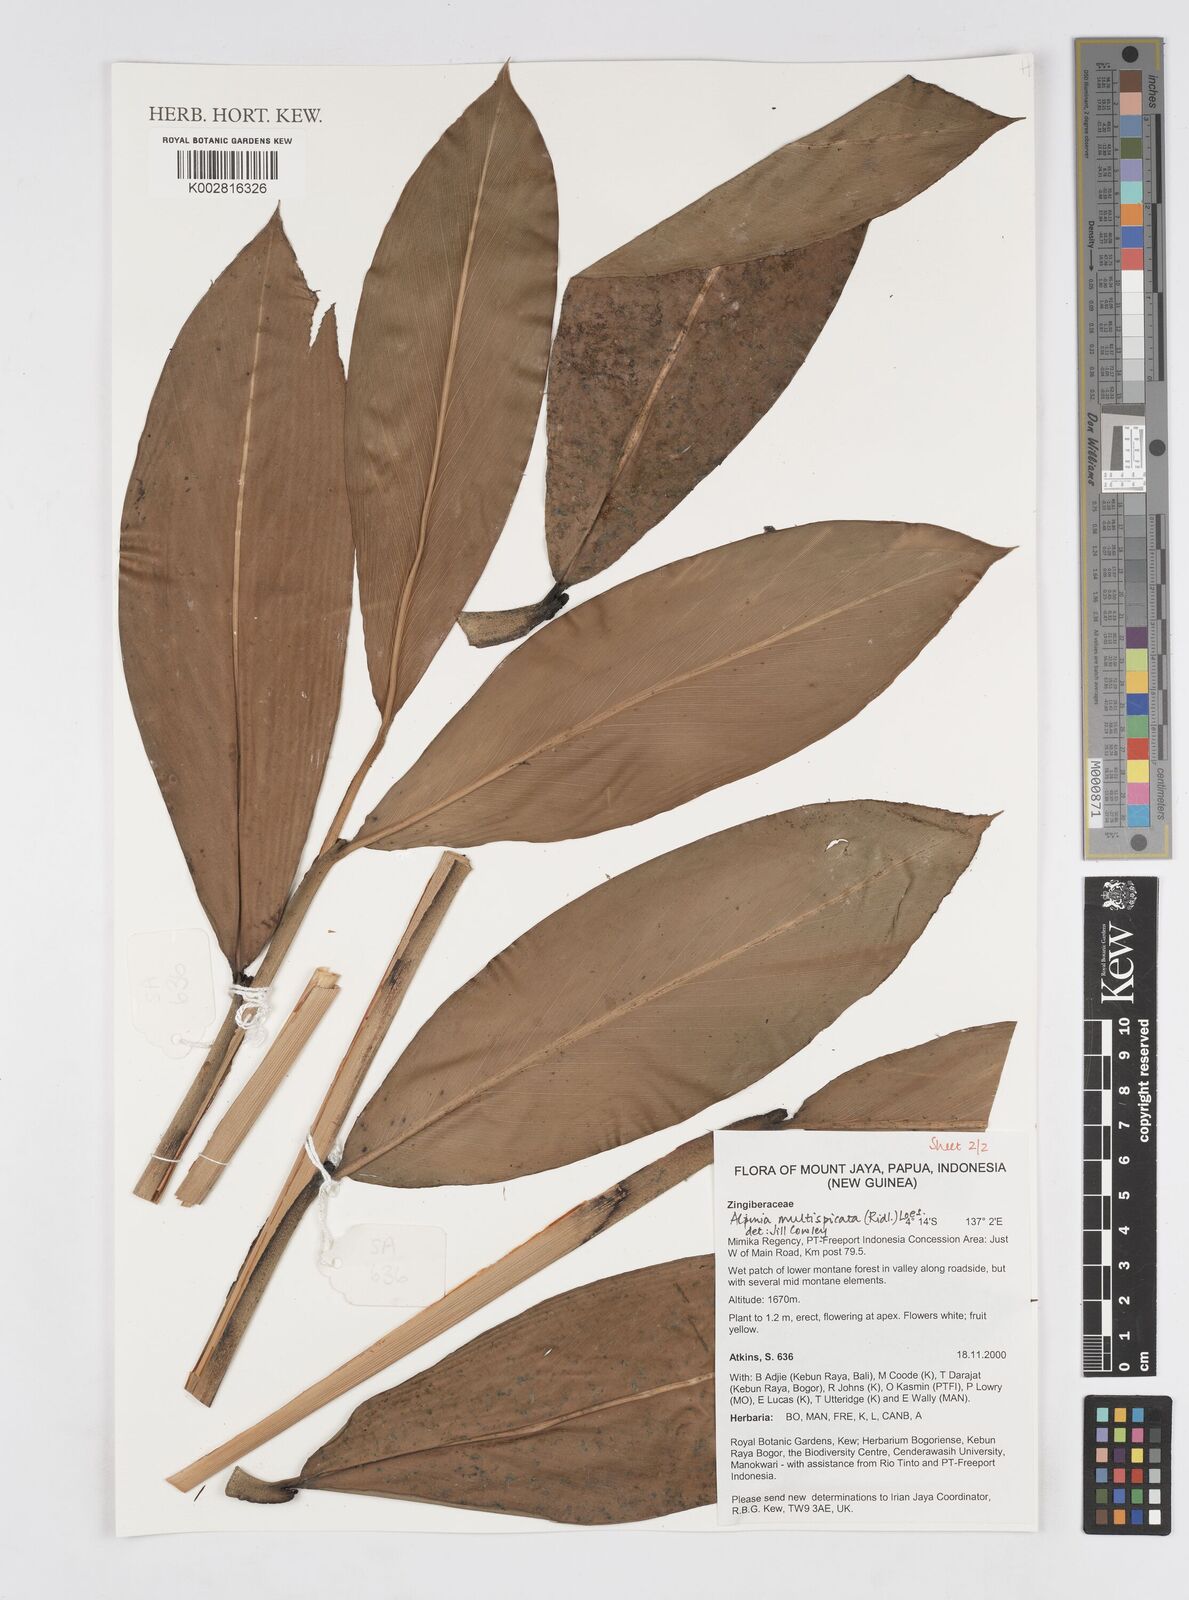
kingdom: Plantae
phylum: Tracheophyta
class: Liliopsida
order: Zingiberales
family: Zingiberaceae
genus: Alpinia
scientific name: Alpinia multispica
